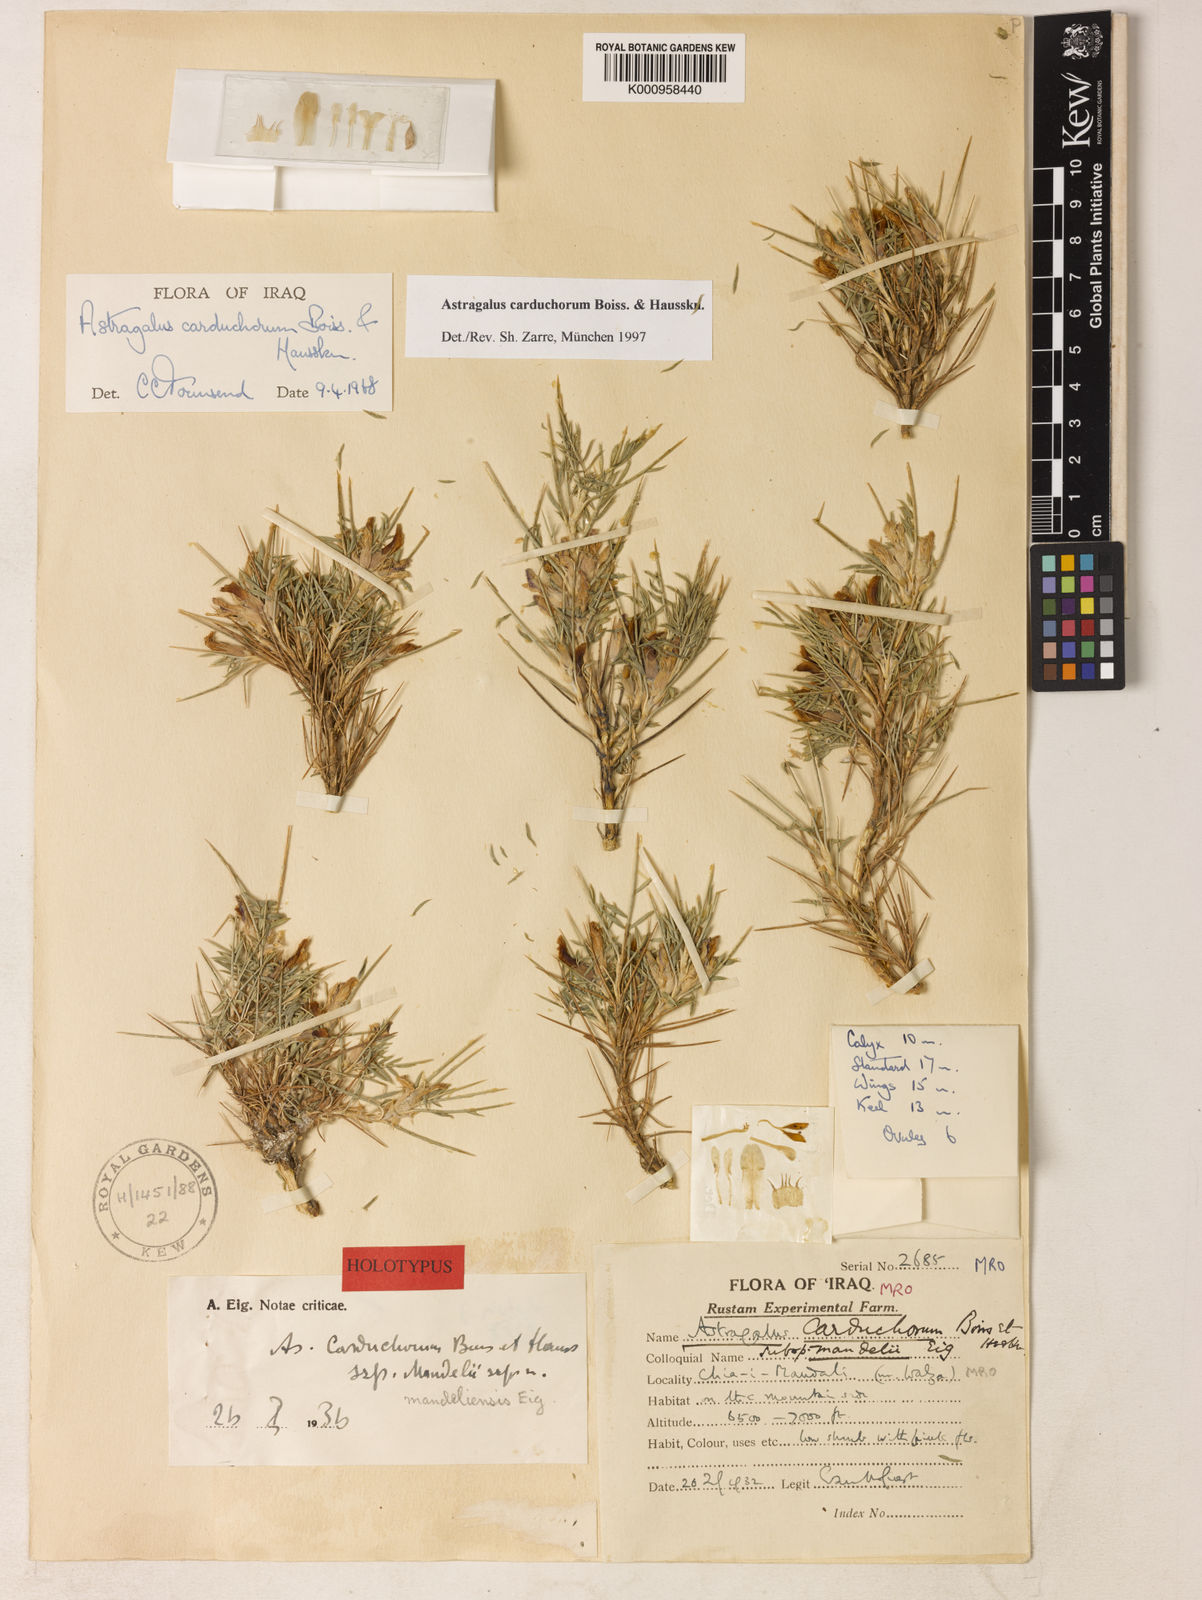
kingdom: Plantae
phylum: Tracheophyta
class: Magnoliopsida
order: Fabales
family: Fabaceae
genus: Astragalus
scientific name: Astragalus carduchorum
